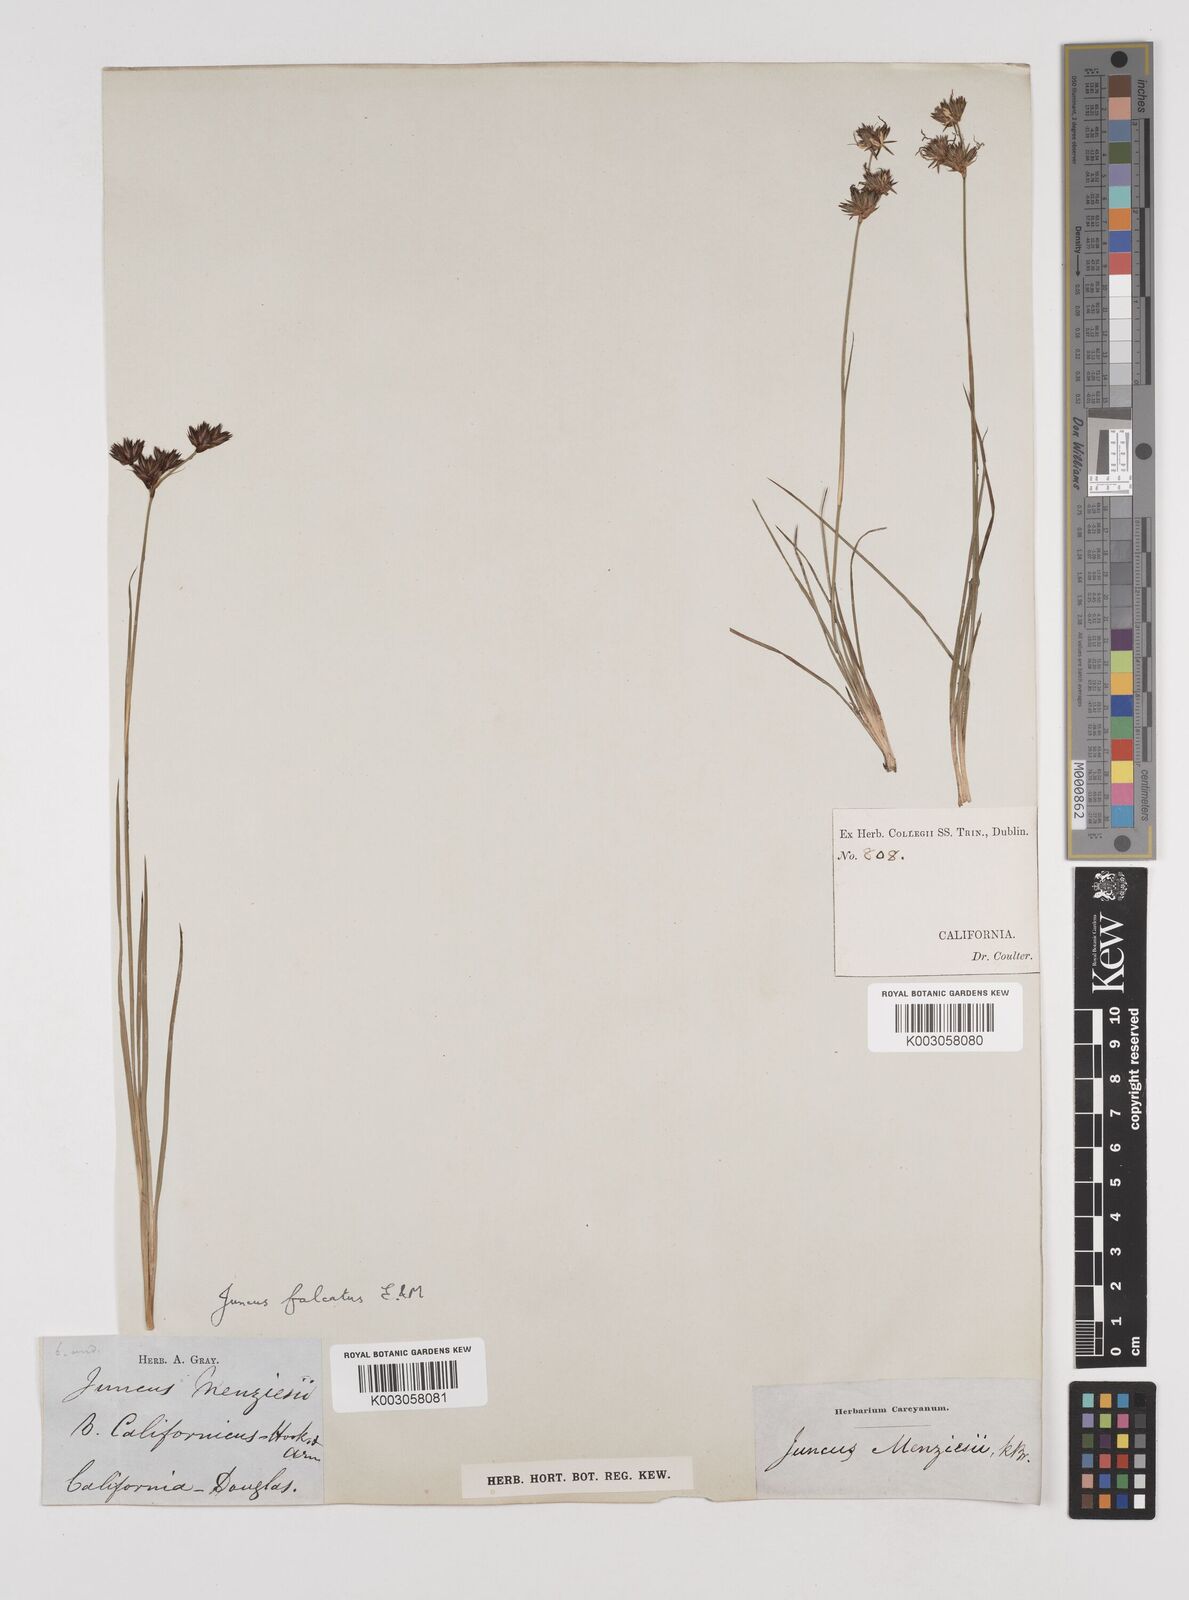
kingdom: Plantae
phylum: Tracheophyta
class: Liliopsida
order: Poales
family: Juncaceae
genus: Juncus
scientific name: Juncus falcatus
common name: Sickle-leaf rush
